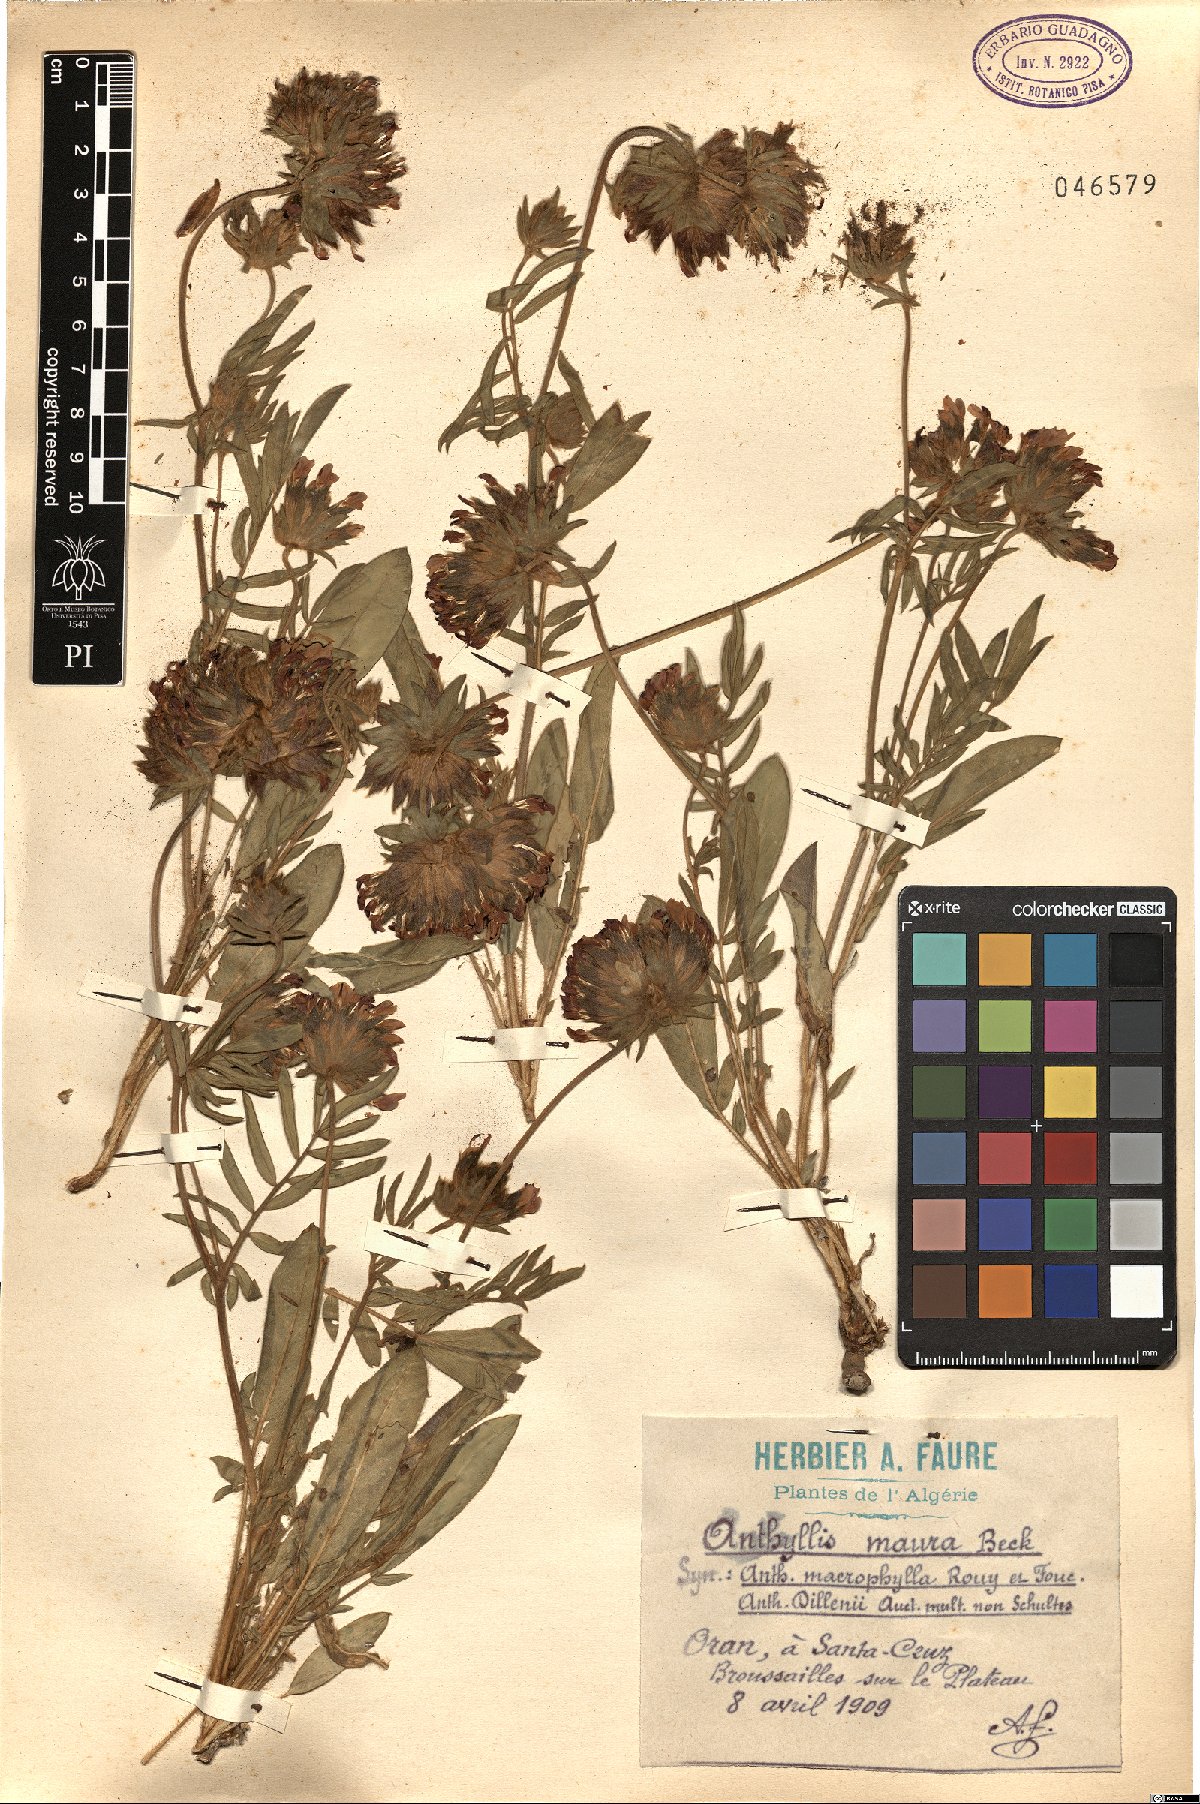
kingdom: Plantae
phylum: Tracheophyta
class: Magnoliopsida
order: Fabales
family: Fabaceae
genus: Anthyllis
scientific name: Anthyllis vulneraria
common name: Kidney vetch
